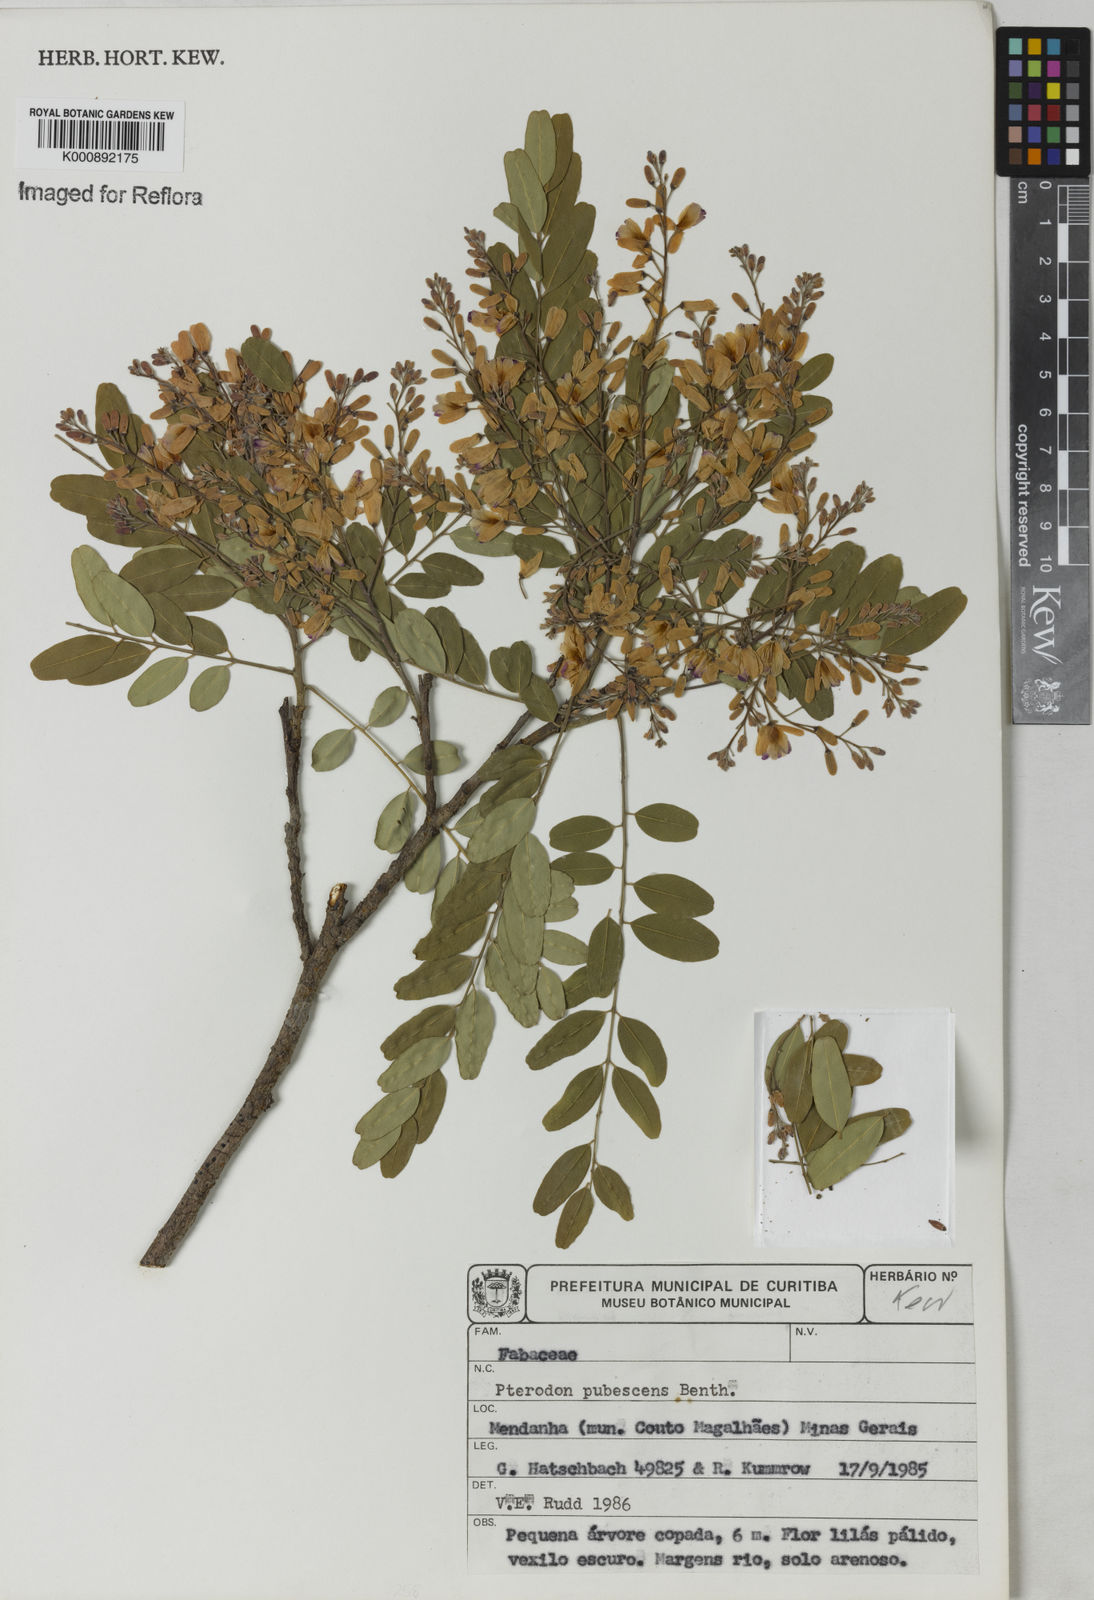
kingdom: Plantae
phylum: Tracheophyta
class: Magnoliopsida
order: Fabales
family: Fabaceae
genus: Pterodon
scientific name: Pterodon emarginatus
